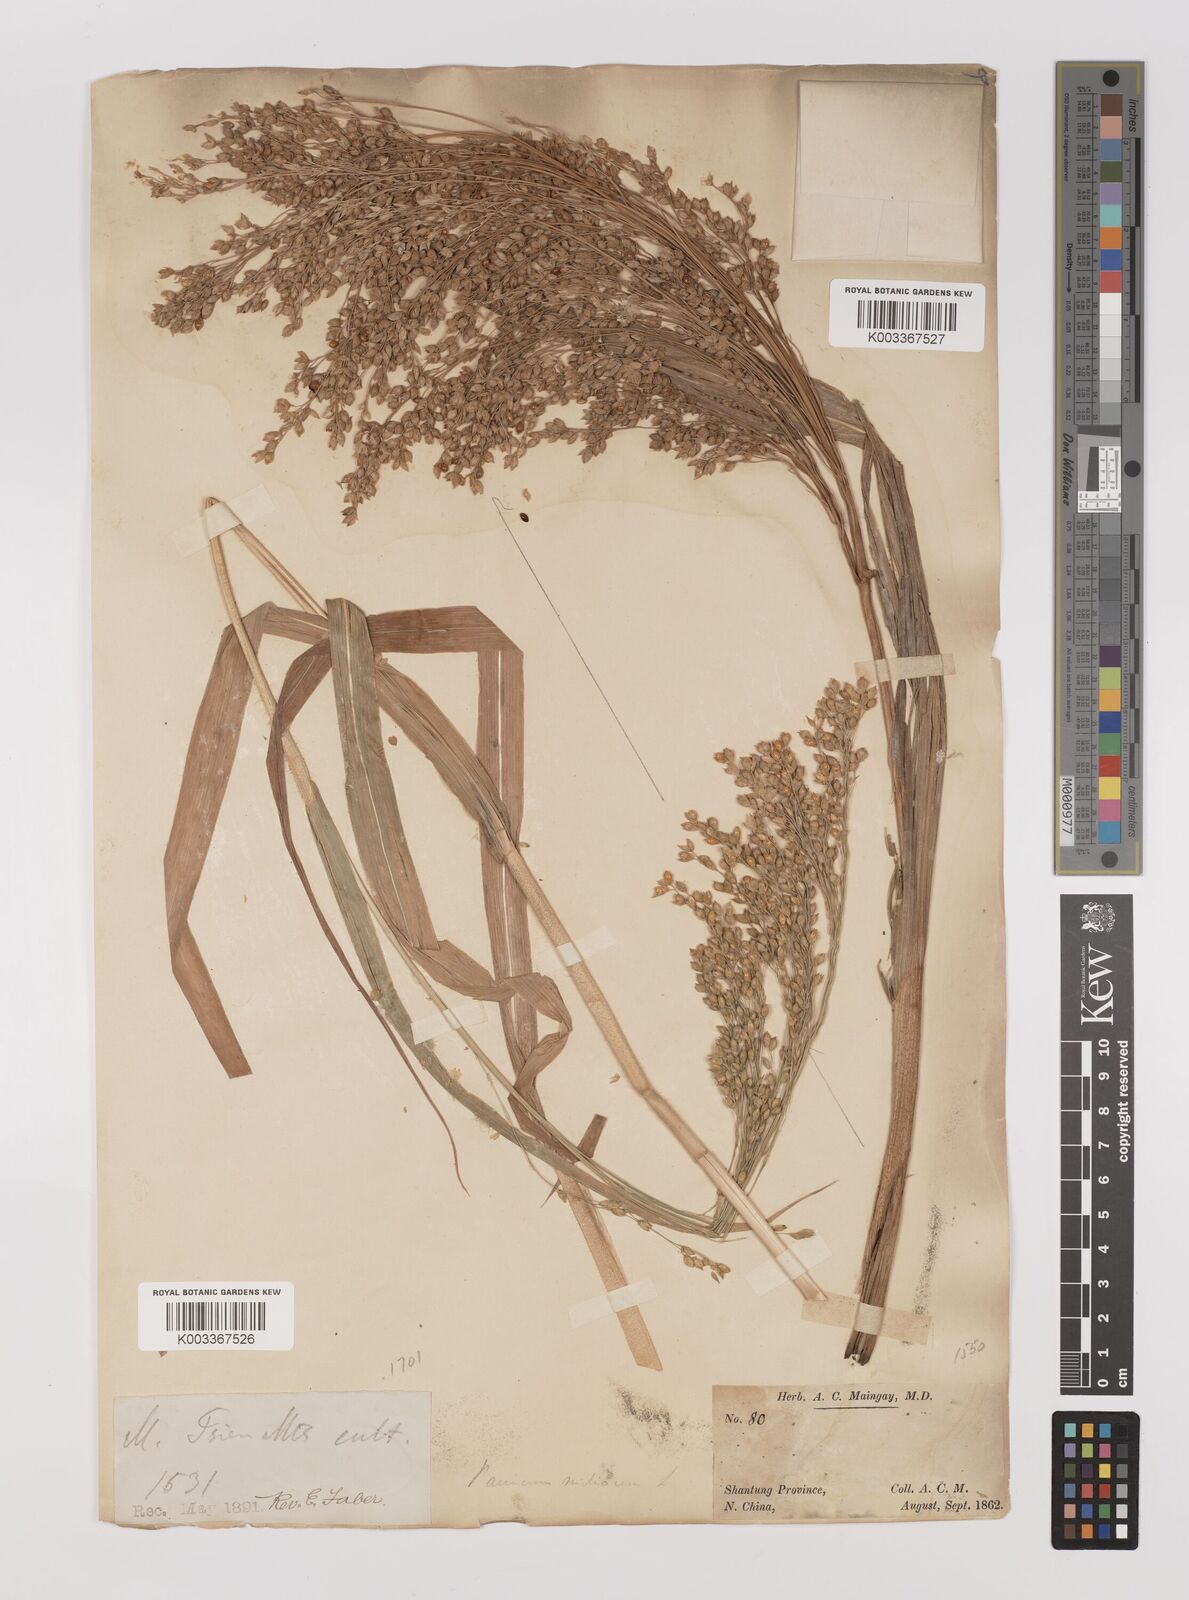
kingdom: Plantae
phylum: Tracheophyta
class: Liliopsida
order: Poales
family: Poaceae
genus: Panicum
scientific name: Panicum miliaceum
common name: Common millet
